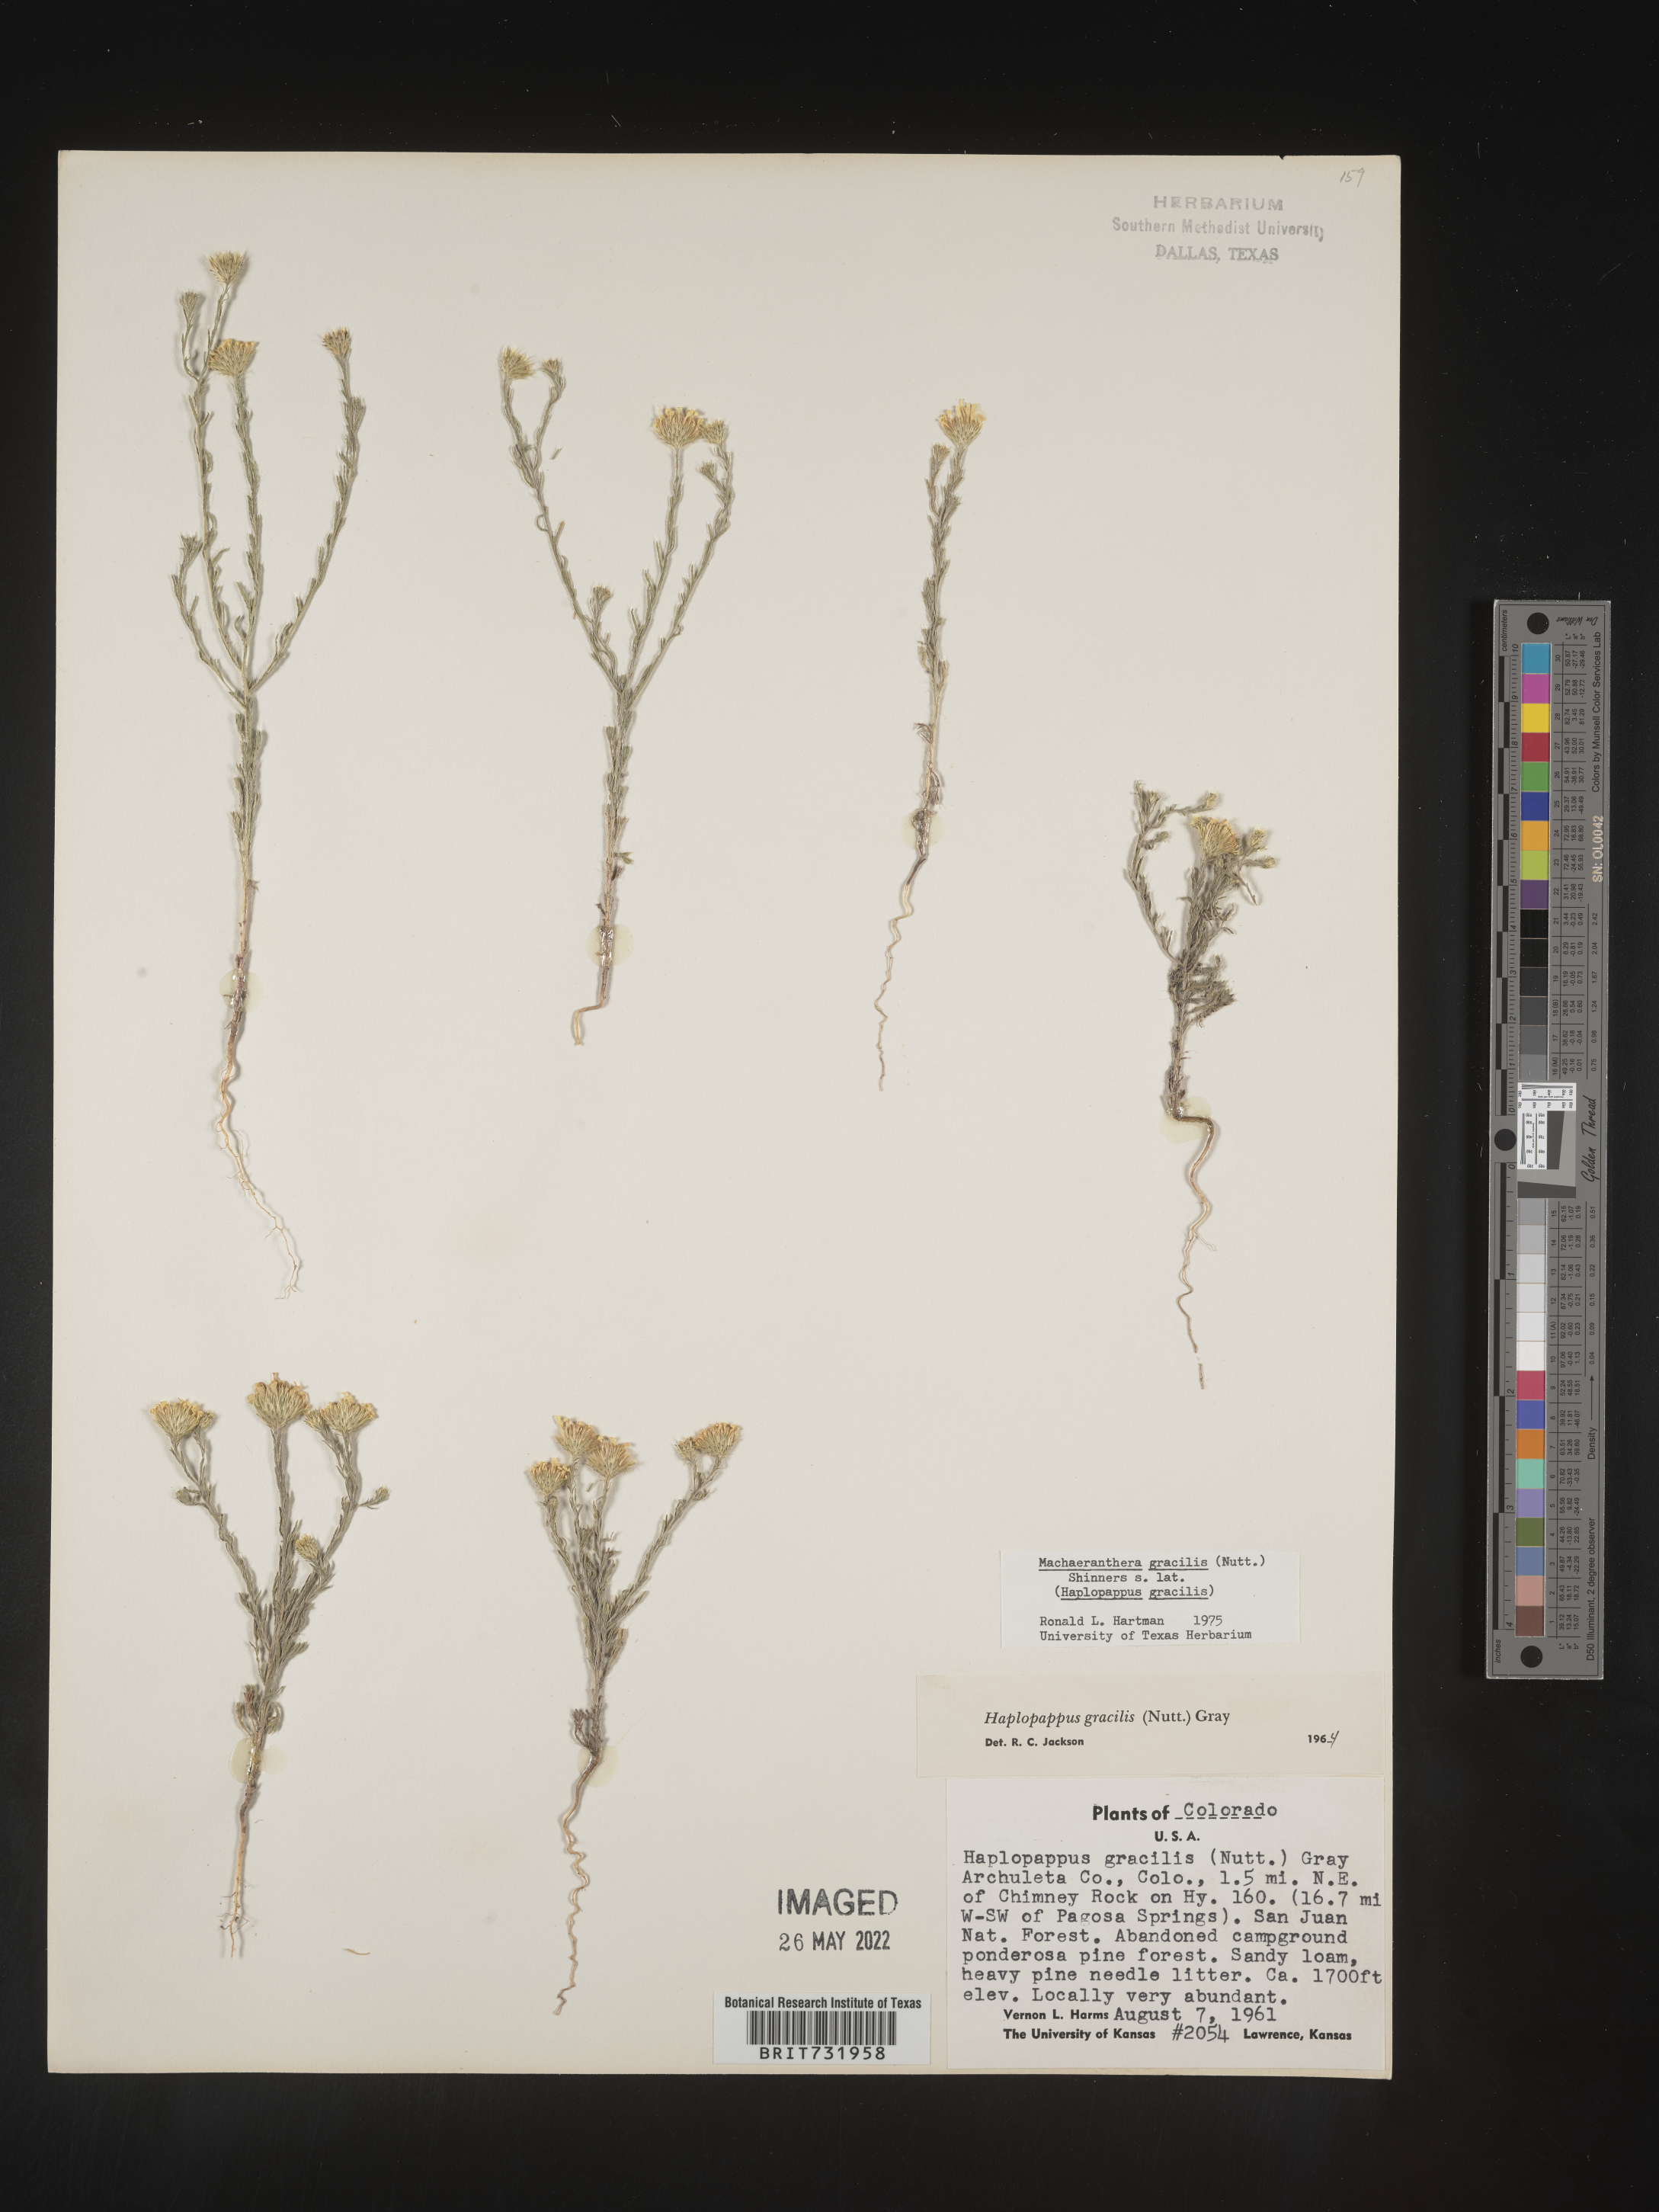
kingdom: Plantae
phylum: Tracheophyta
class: Magnoliopsida
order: Asterales
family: Asteraceae
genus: Xanthisma
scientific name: Xanthisma gracile
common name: Slender goldenweed
